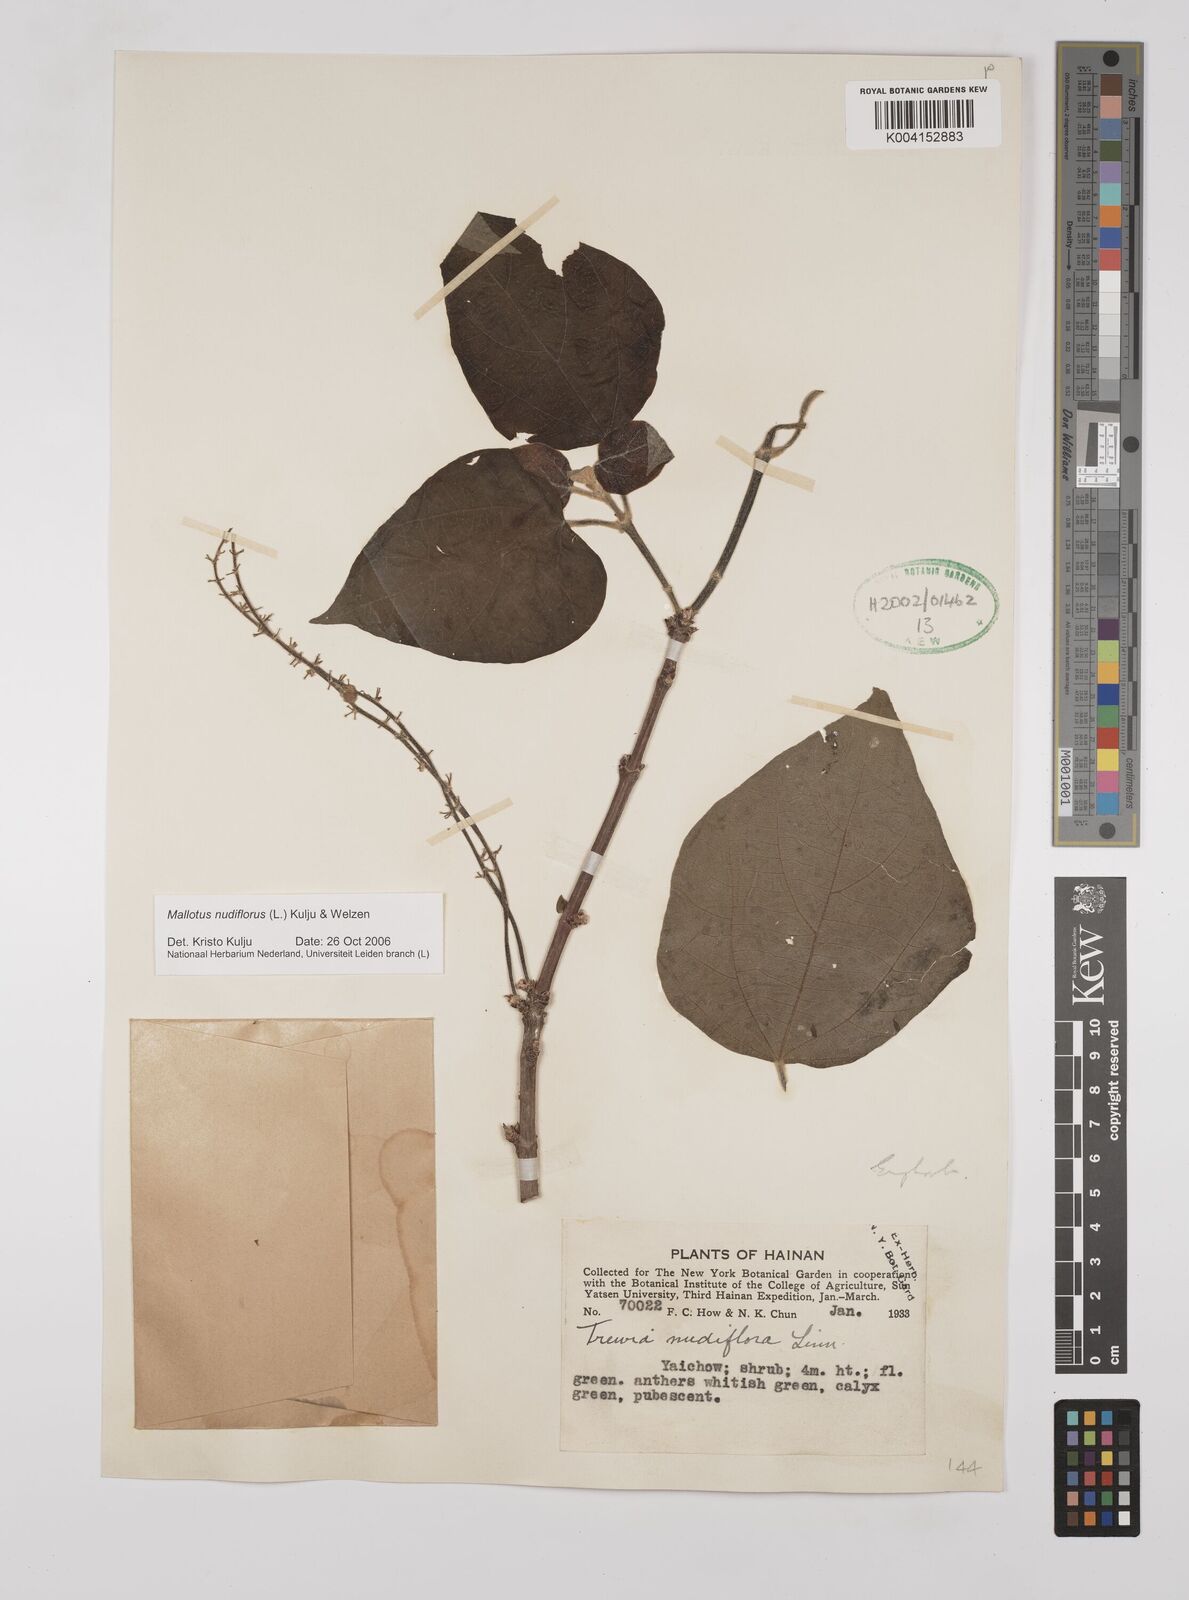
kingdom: Plantae
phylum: Tracheophyta
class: Magnoliopsida
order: Malpighiales
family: Euphorbiaceae
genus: Mallotus
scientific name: Mallotus nudiflorus
